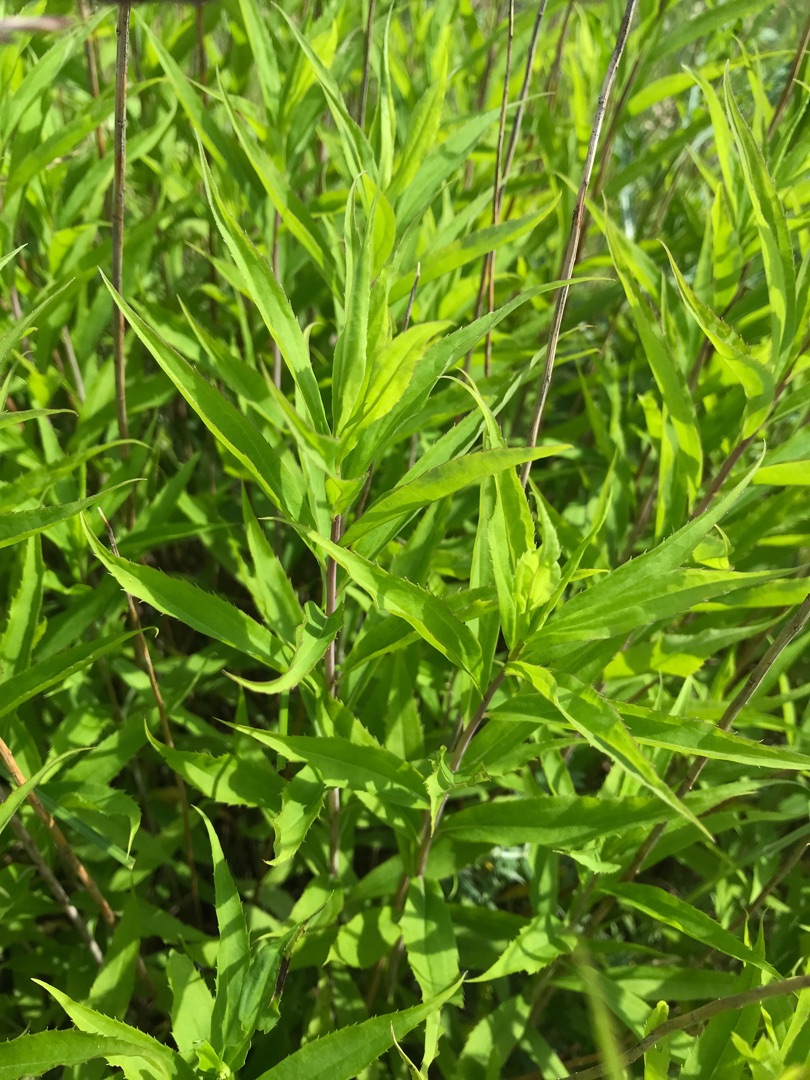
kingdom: Plantae
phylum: Tracheophyta
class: Magnoliopsida
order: Asterales
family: Asteraceae
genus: Solidago
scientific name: Solidago gigantea
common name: Sildig gyldenris
